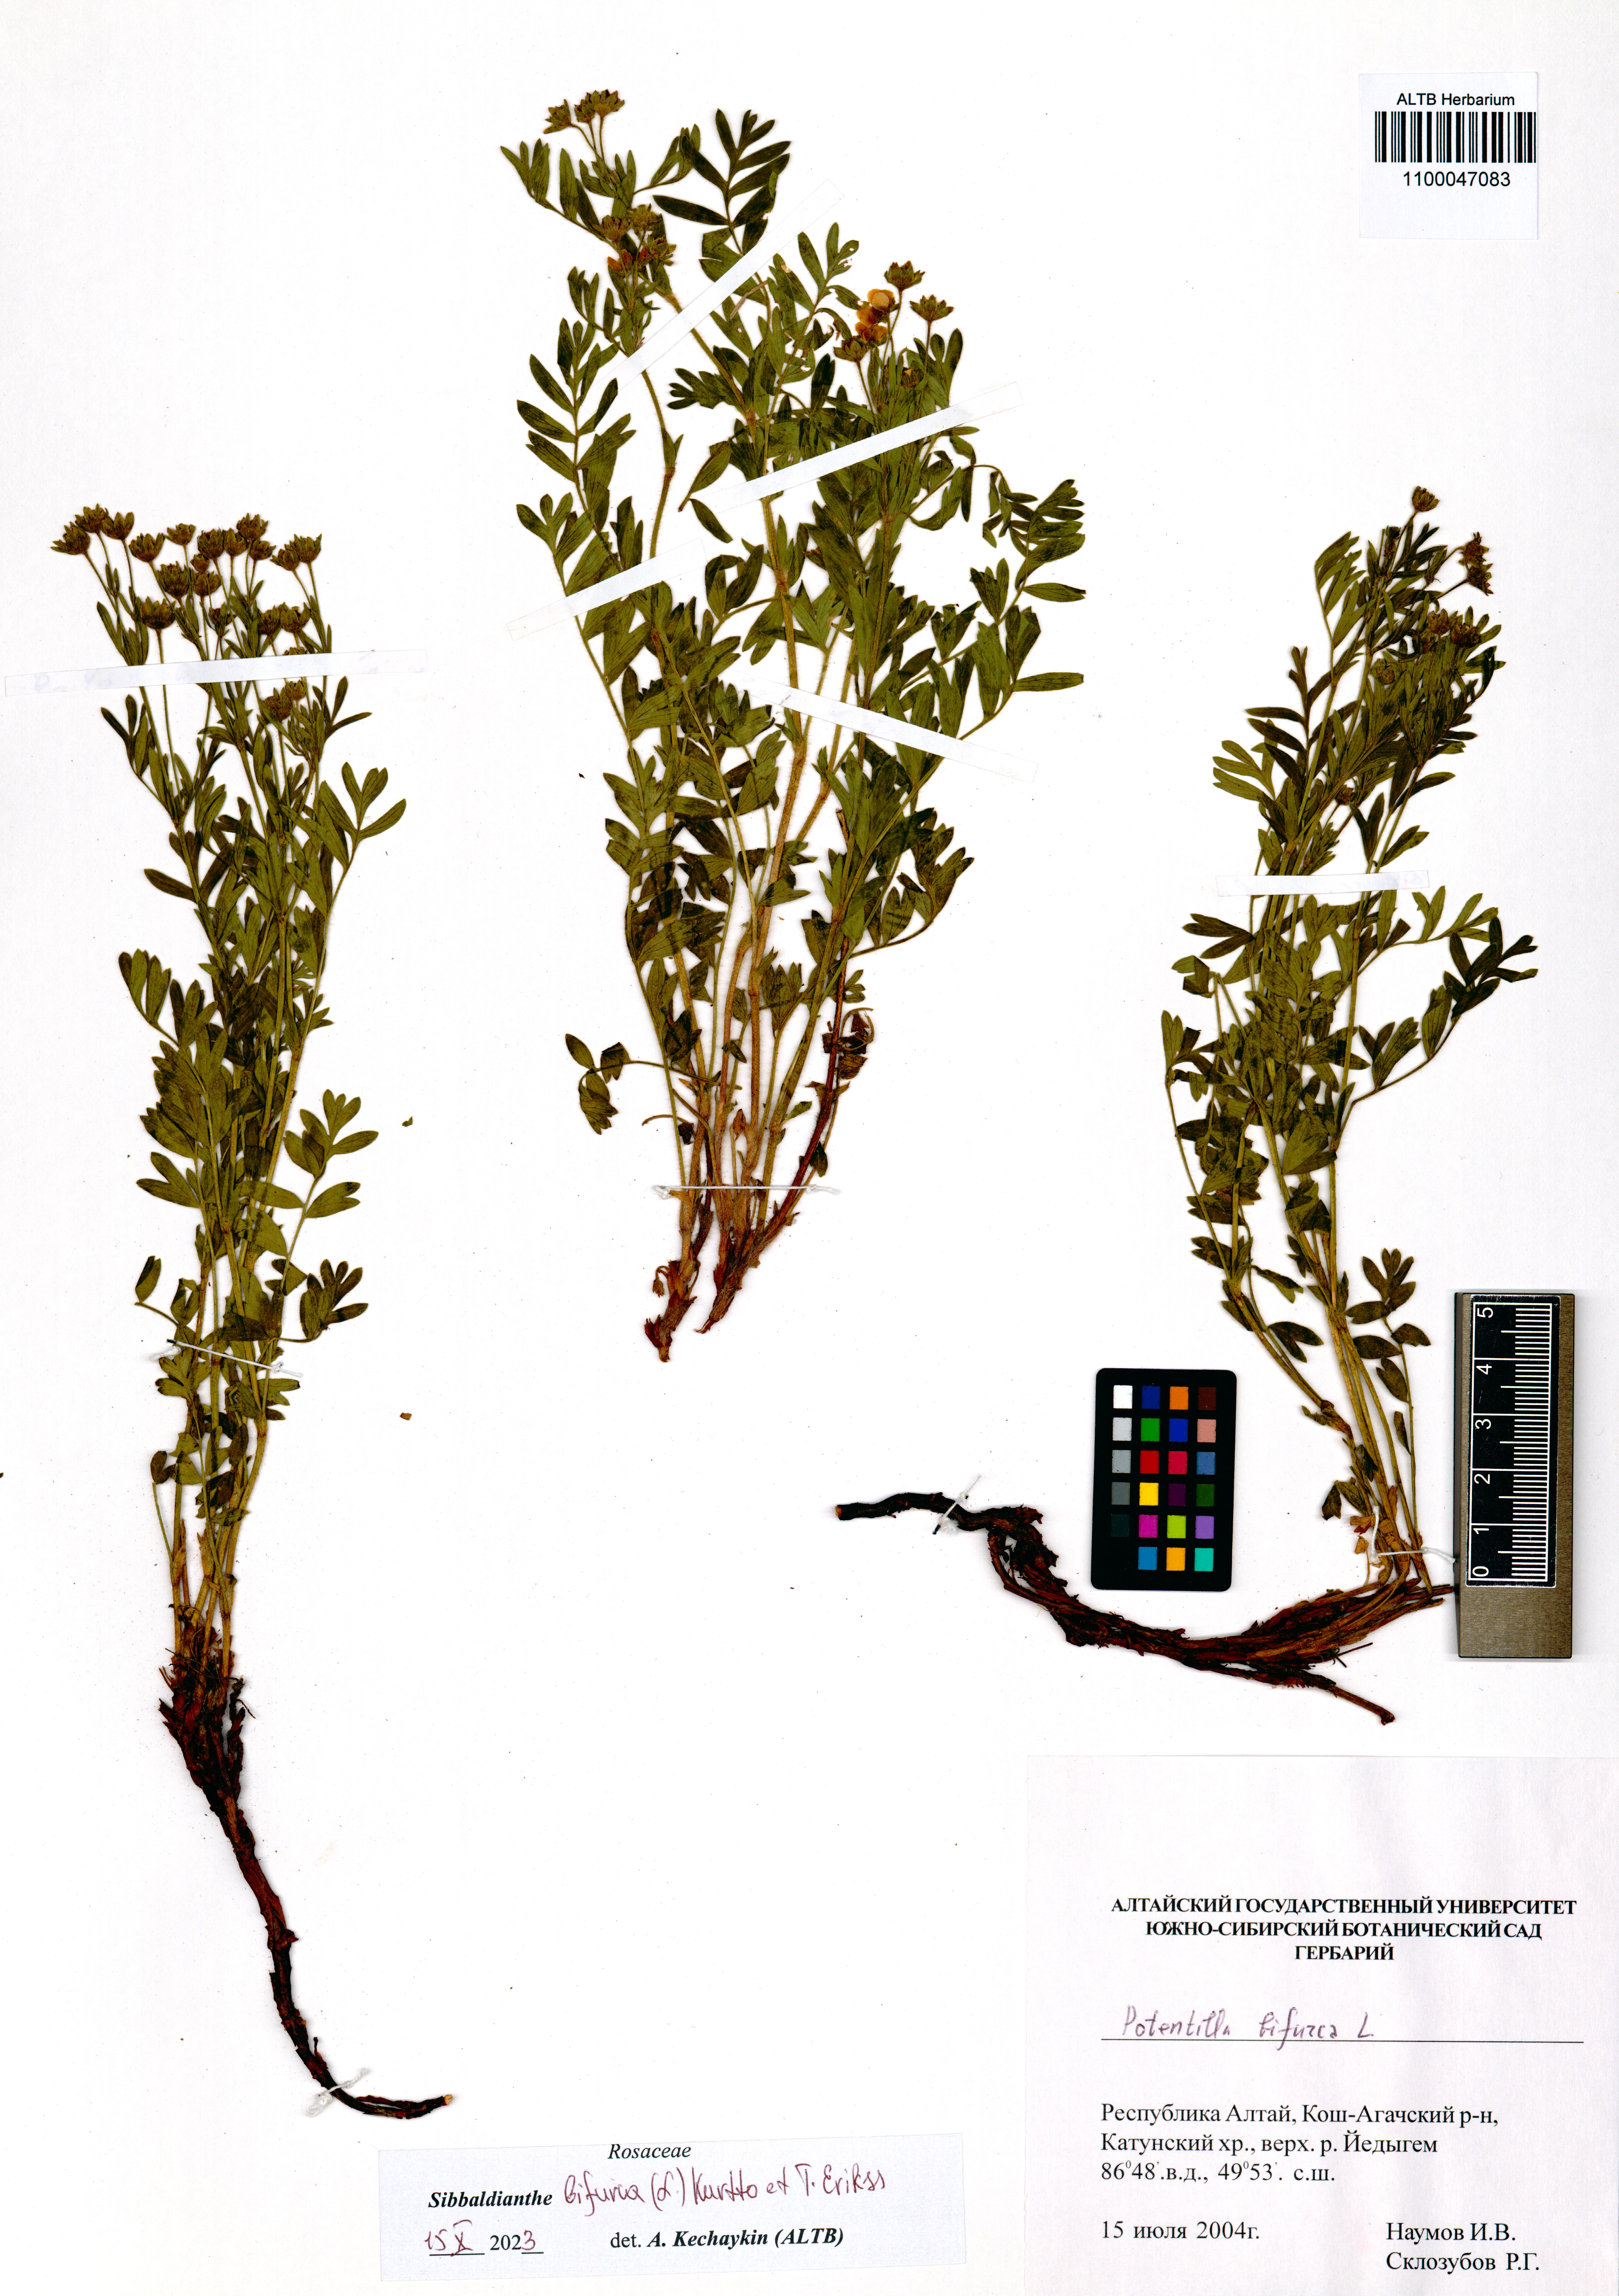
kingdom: Plantae
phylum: Tracheophyta
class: Magnoliopsida
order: Rosales
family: Rosaceae
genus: Sibbaldianthe
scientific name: Sibbaldianthe bifurca
